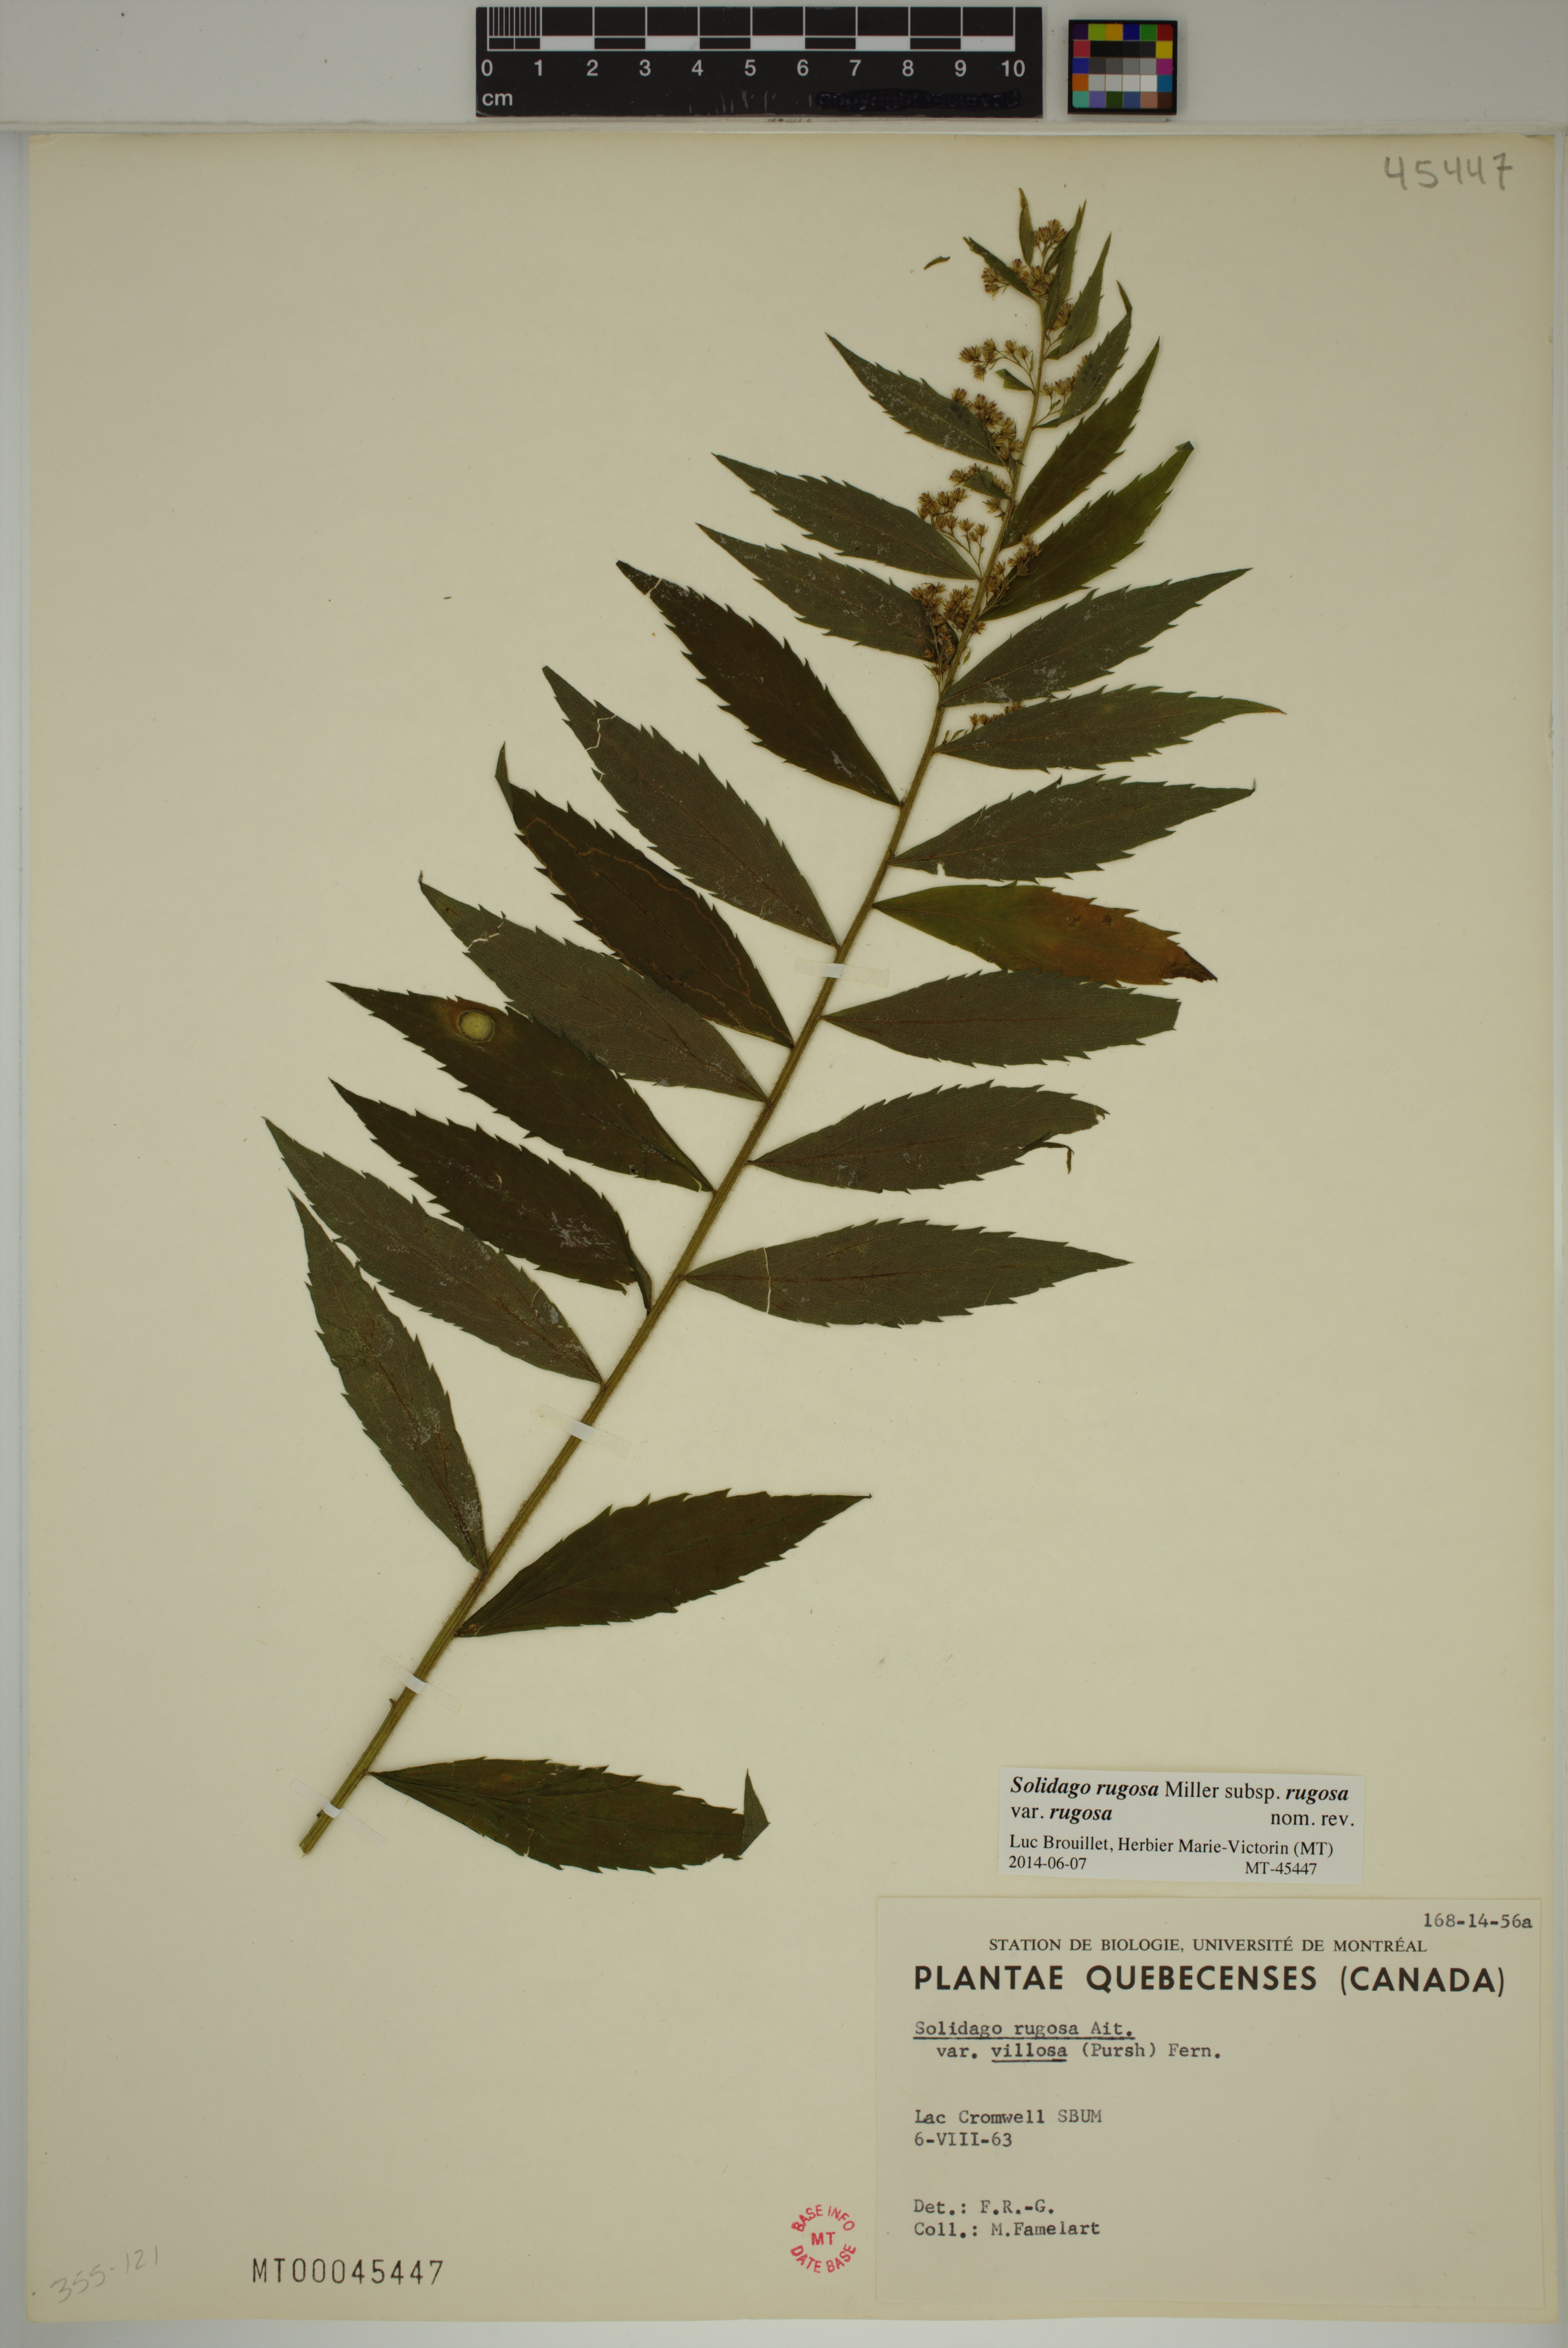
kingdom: Plantae
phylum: Tracheophyta
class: Magnoliopsida
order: Asterales
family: Asteraceae
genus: Solidago
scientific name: Solidago rugosa
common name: Rough-stemmed goldenrod
